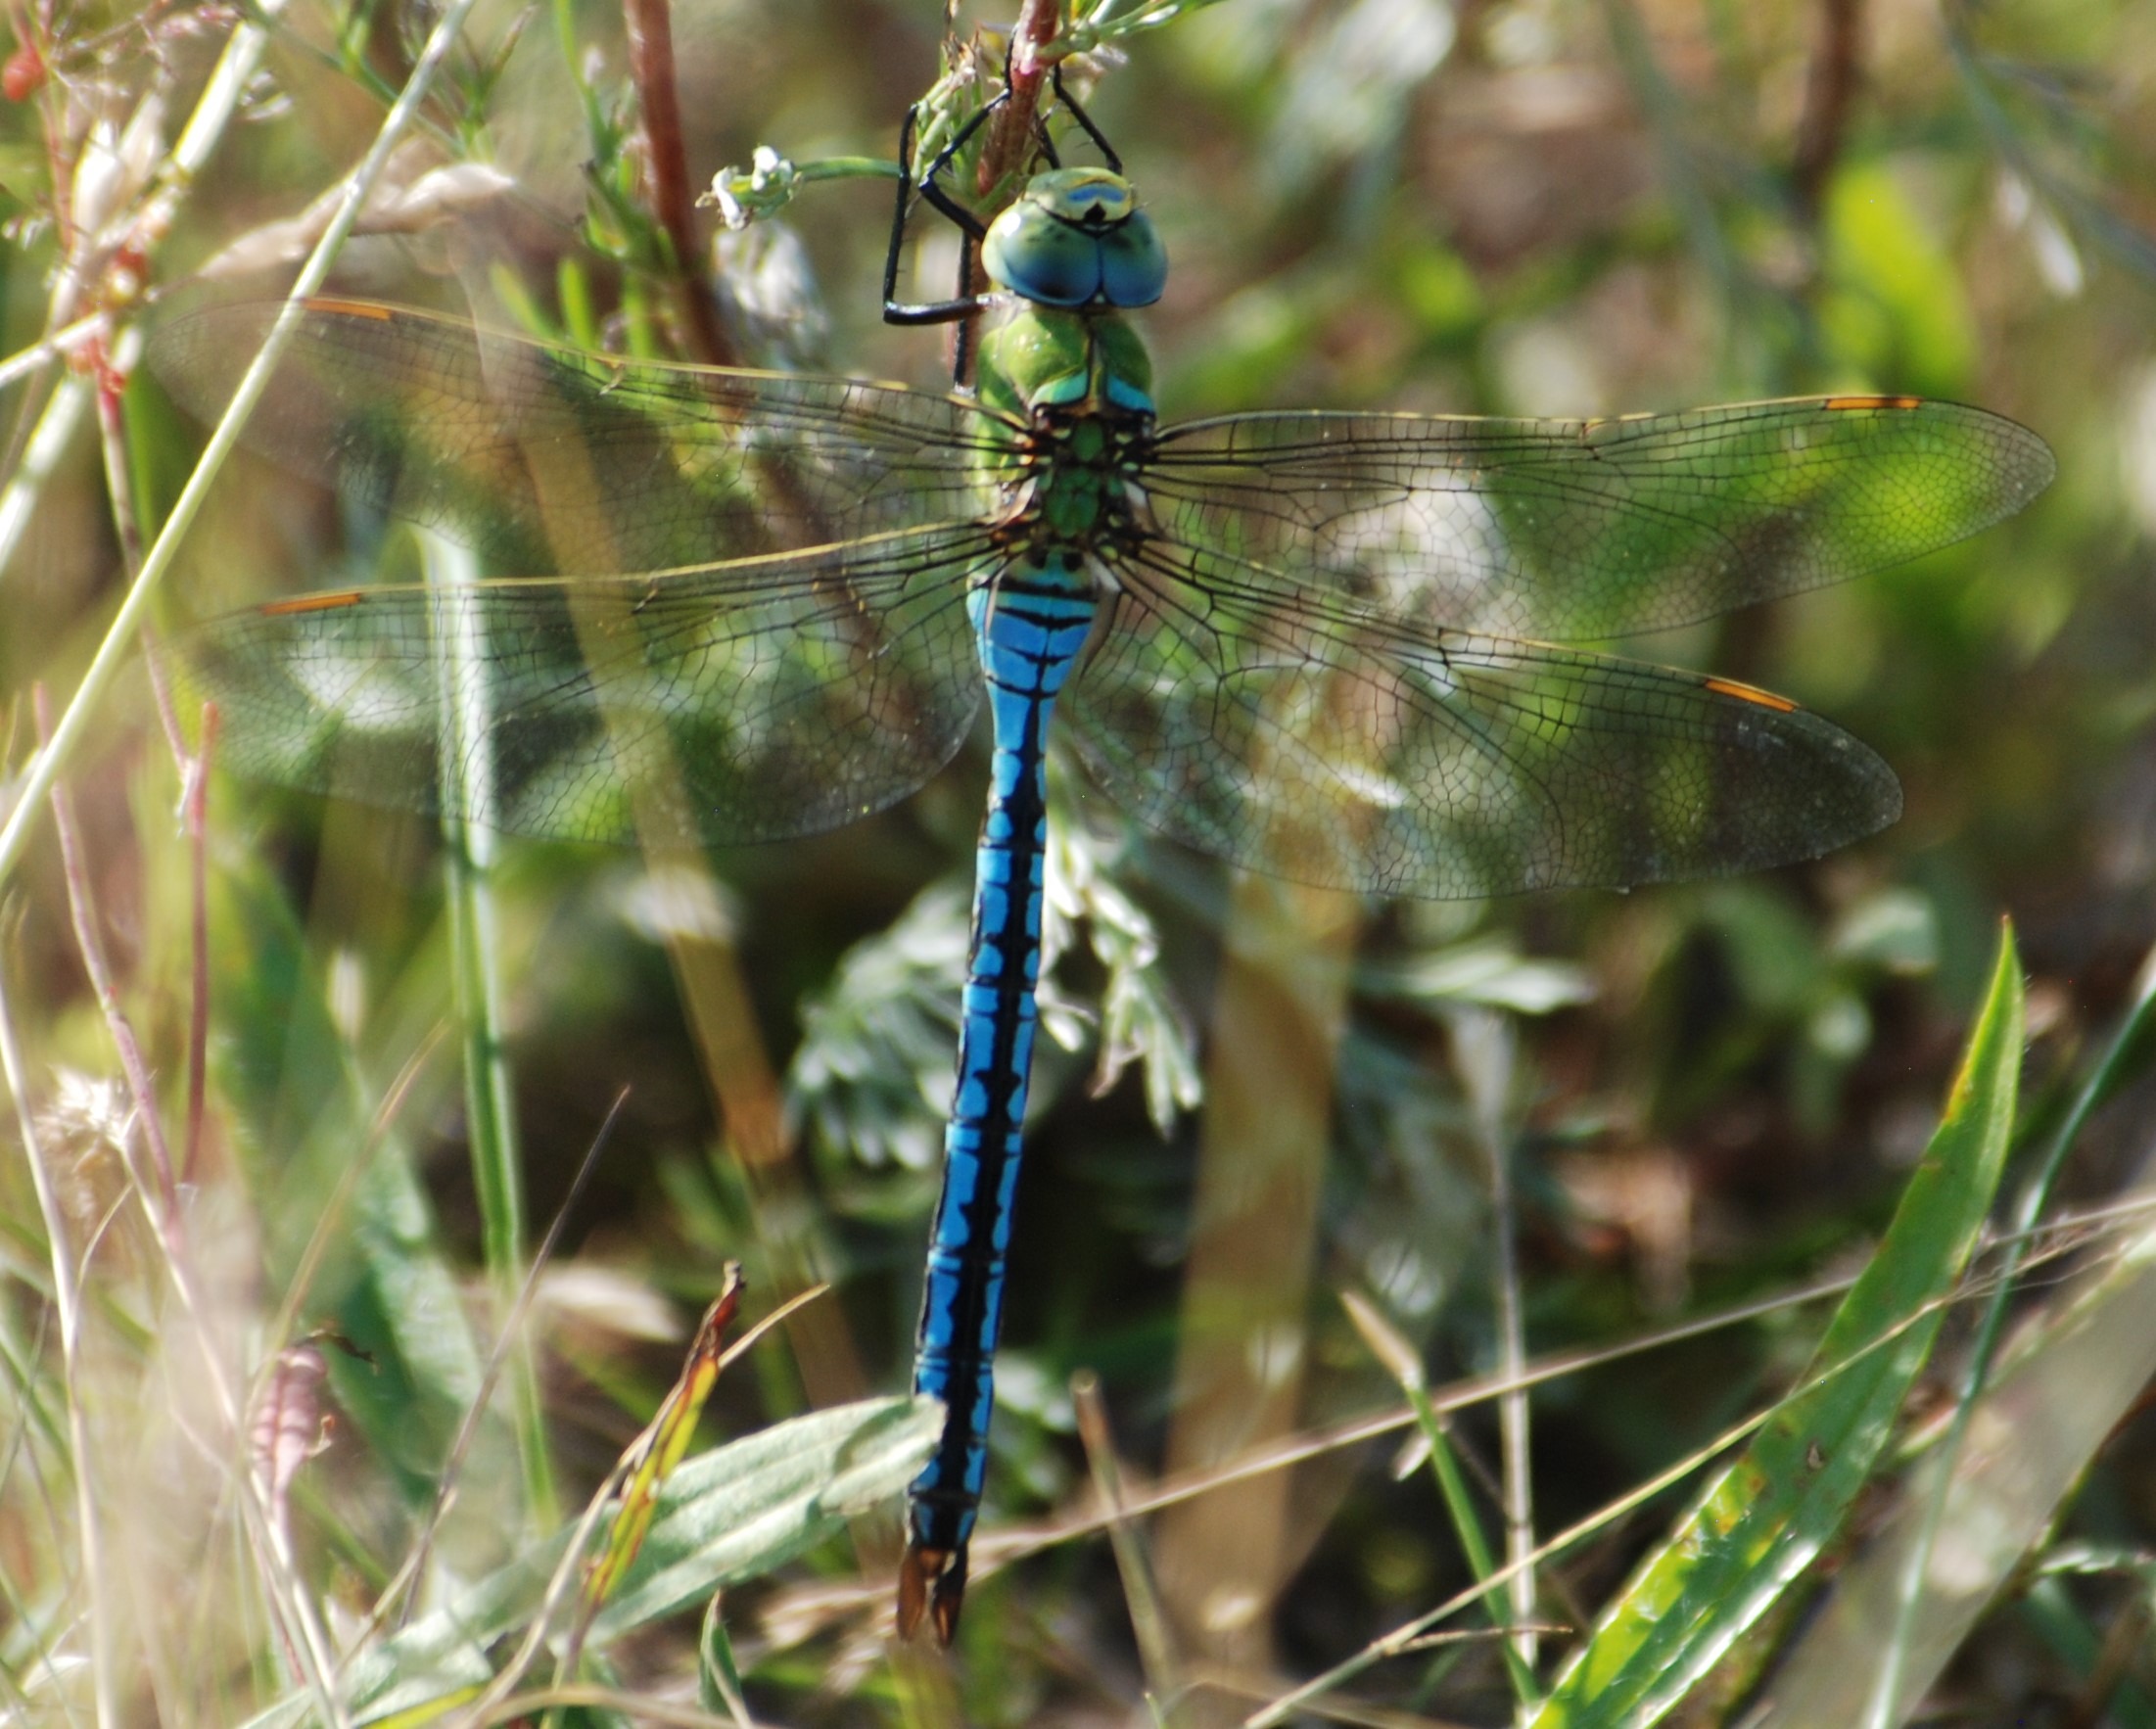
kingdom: Animalia
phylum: Arthropoda
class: Insecta
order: Odonata
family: Aeshnidae
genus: Anax
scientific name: Anax imperator
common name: Stor kejserguldsmed
